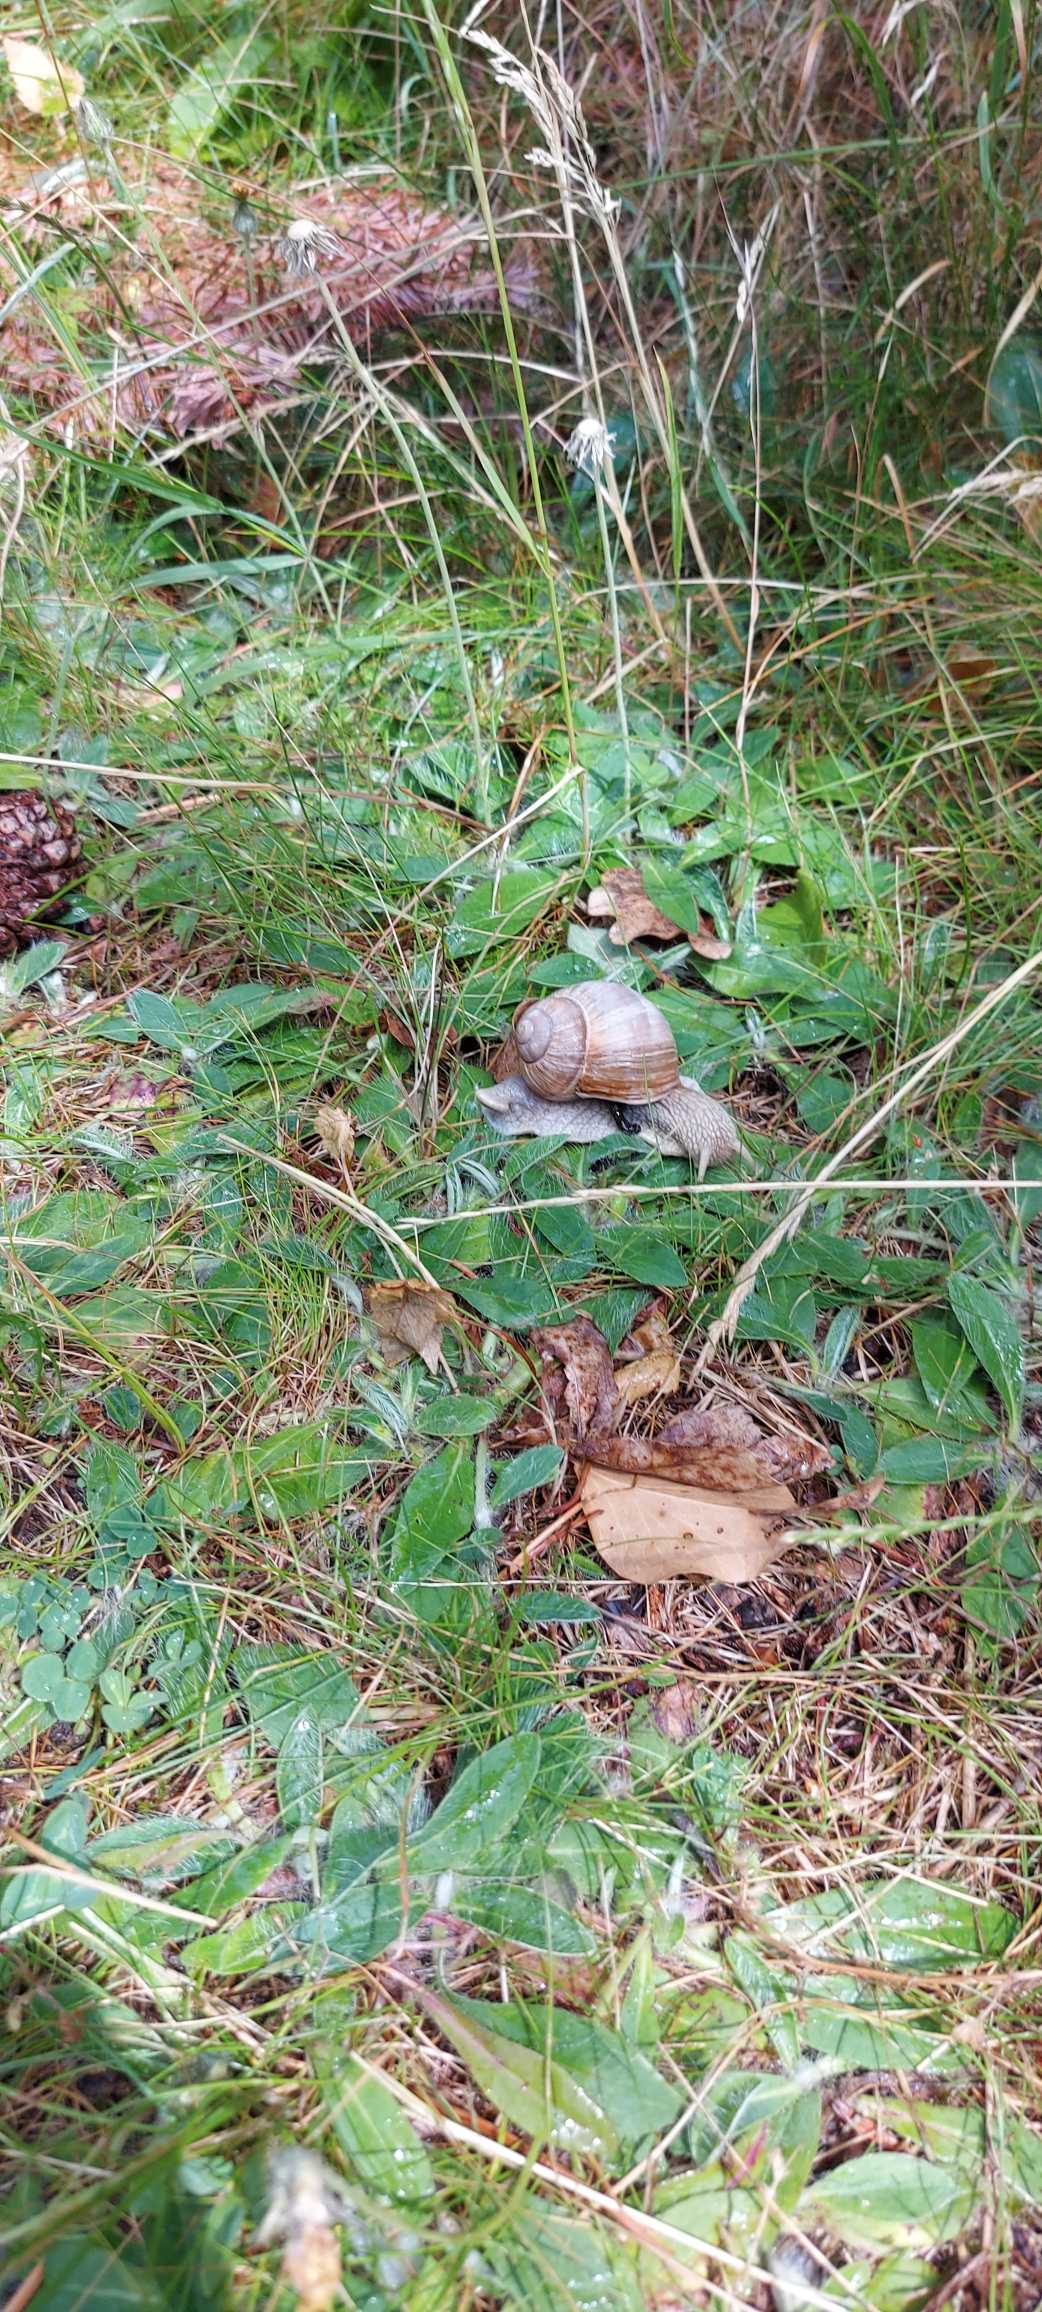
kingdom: Animalia
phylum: Mollusca
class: Gastropoda
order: Stylommatophora
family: Helicidae
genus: Helix
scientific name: Helix pomatia
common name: Vinbjergsnegl
